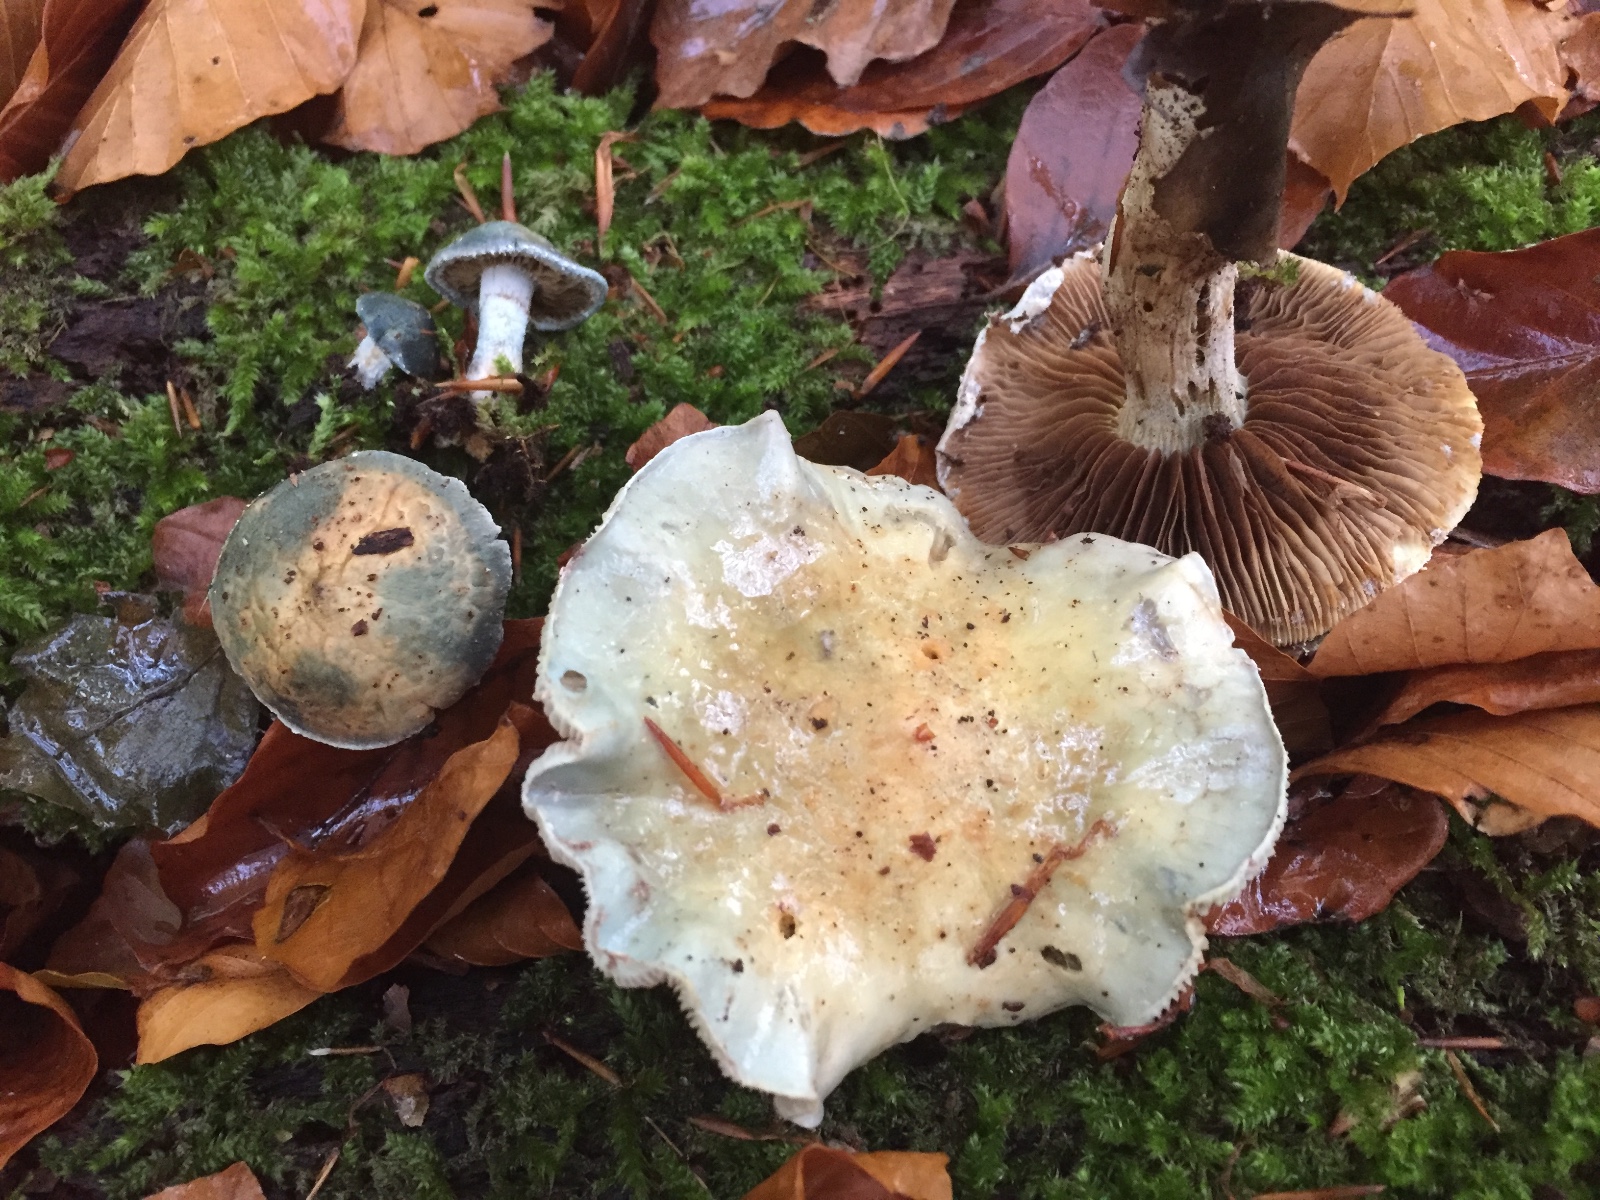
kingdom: Fungi
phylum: Basidiomycota
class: Agaricomycetes
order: Agaricales
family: Strophariaceae
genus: Stropharia
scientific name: Stropharia cyanea
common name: blågrøn bredblad
